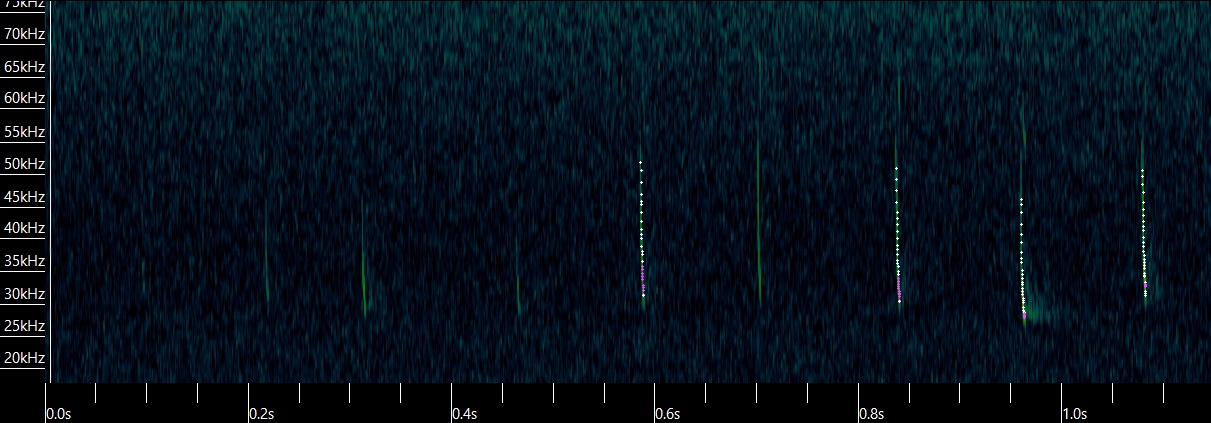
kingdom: Animalia
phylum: Chordata
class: Mammalia
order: Chiroptera
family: Vespertilionidae
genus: Plecotus
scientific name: Plecotus auritus
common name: Brun langøre
